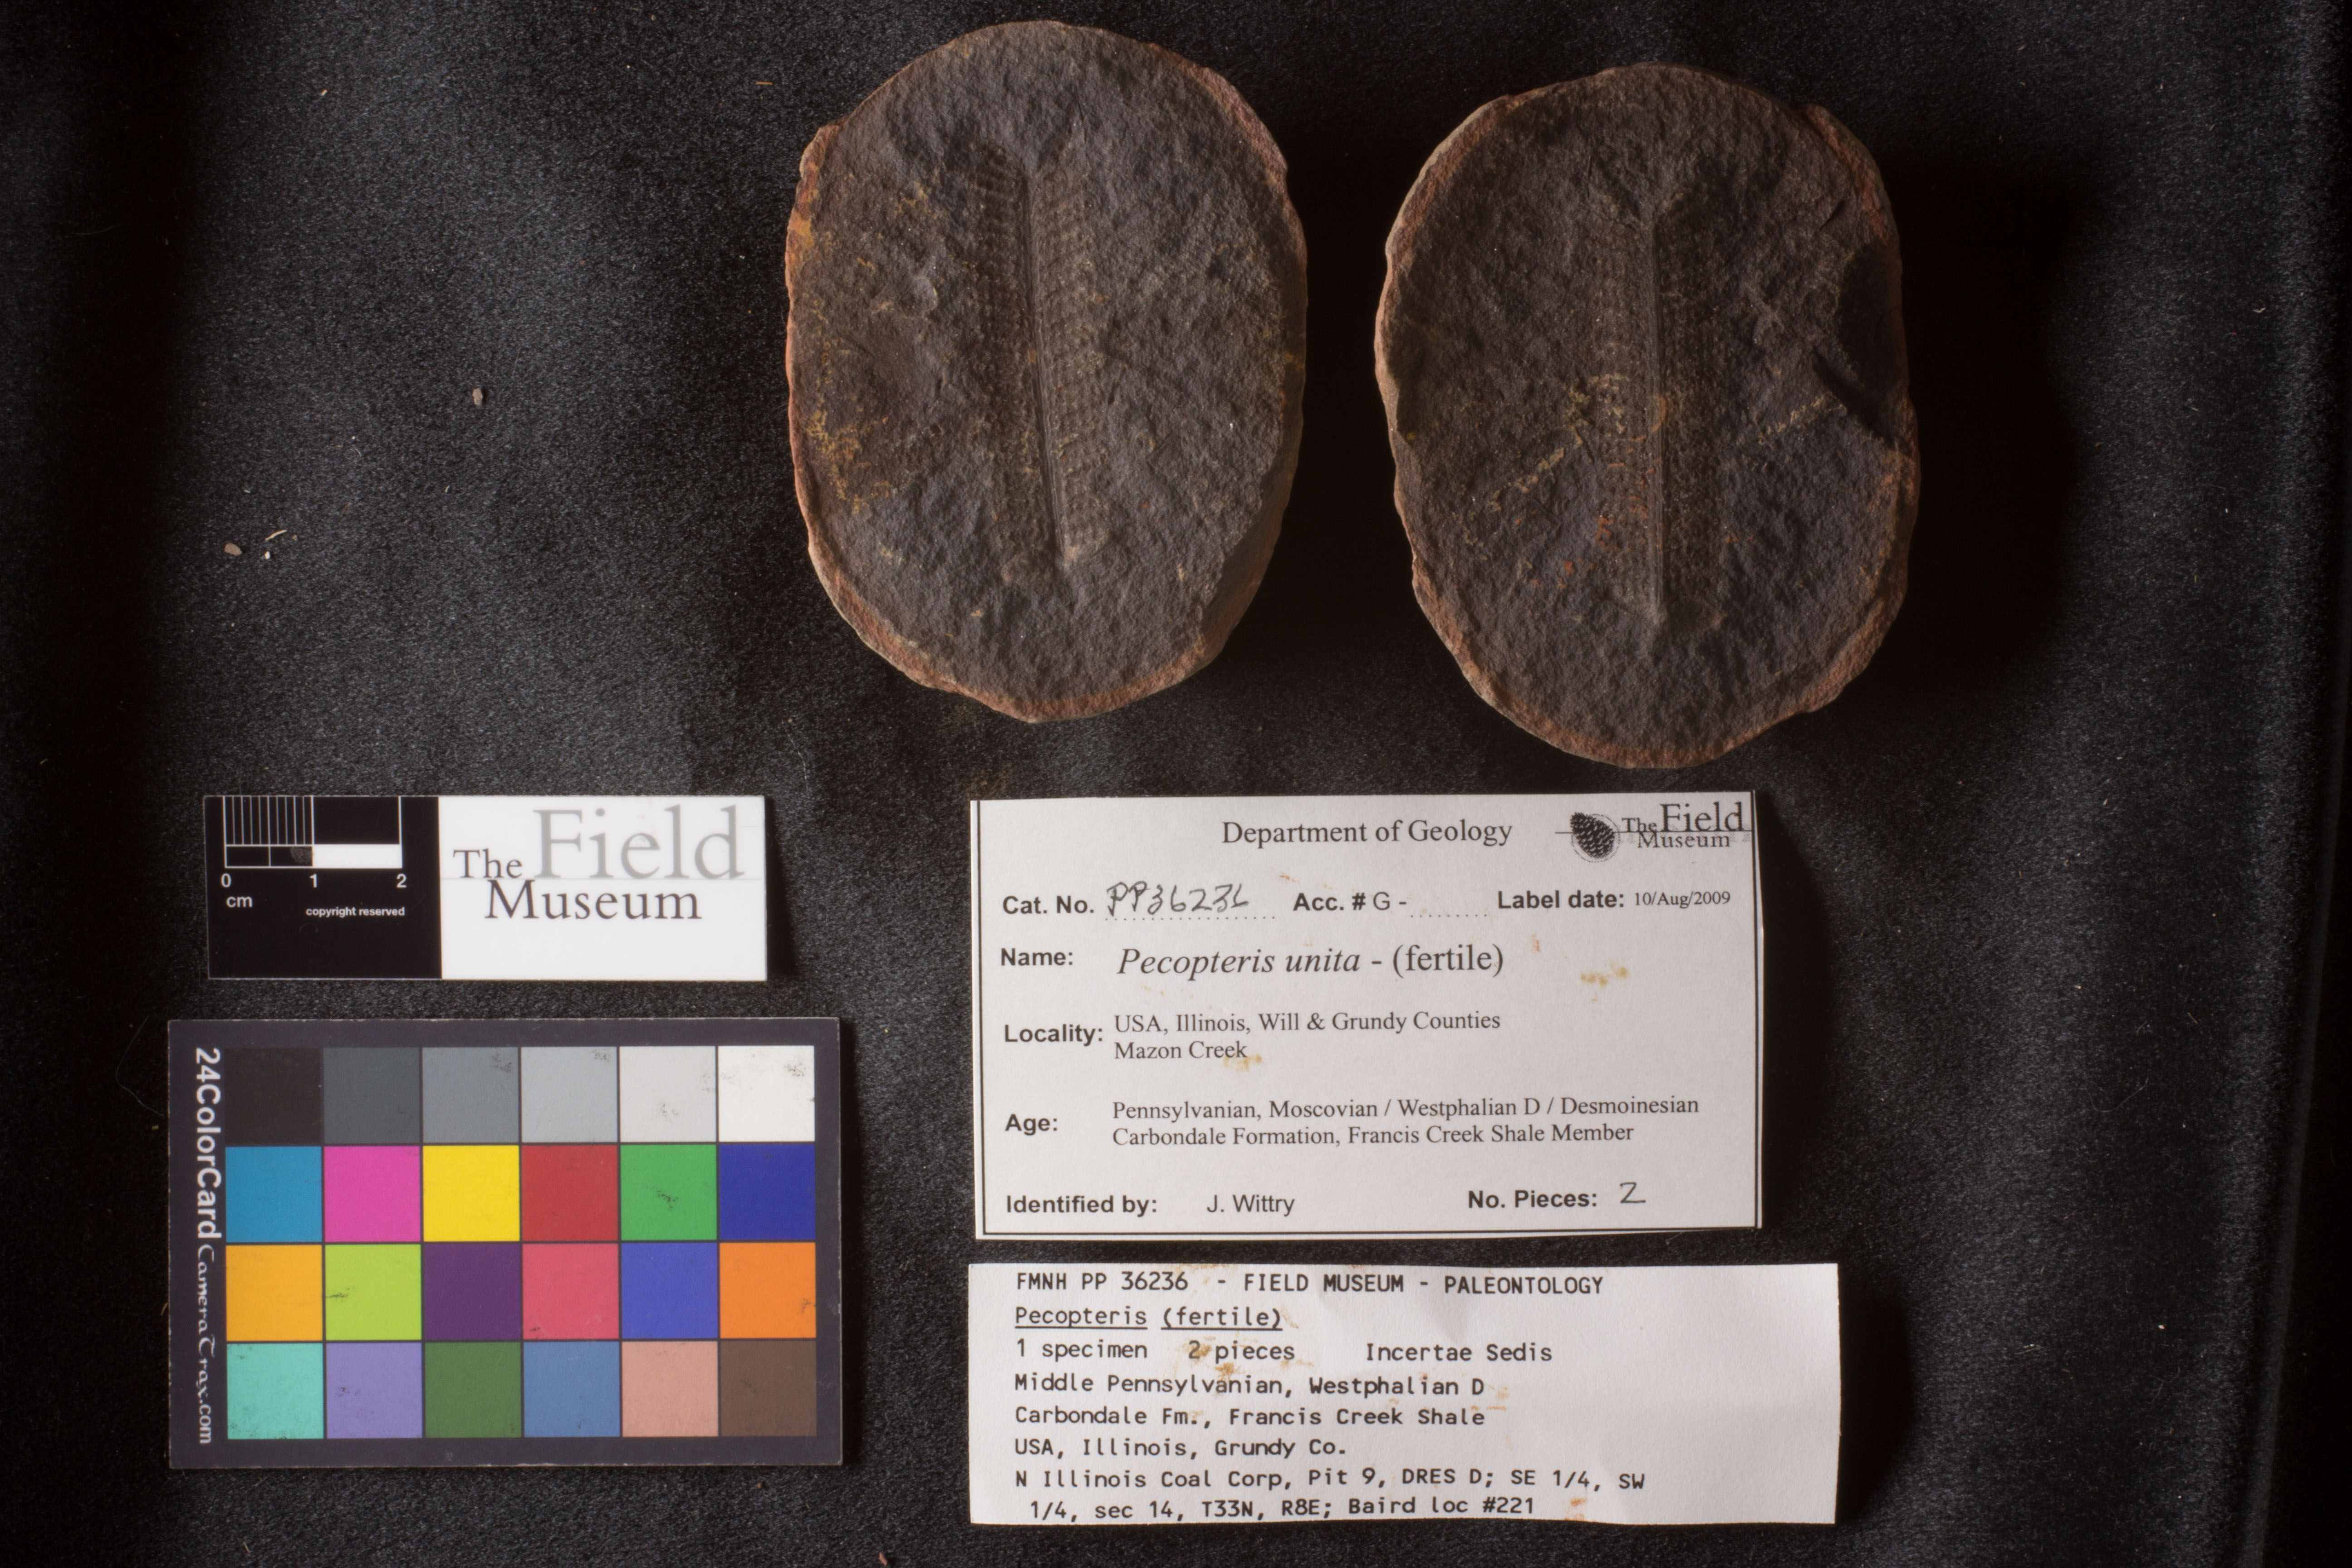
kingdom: Plantae
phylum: Tracheophyta
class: Polypodiopsida
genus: Diplazites
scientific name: Diplazites
